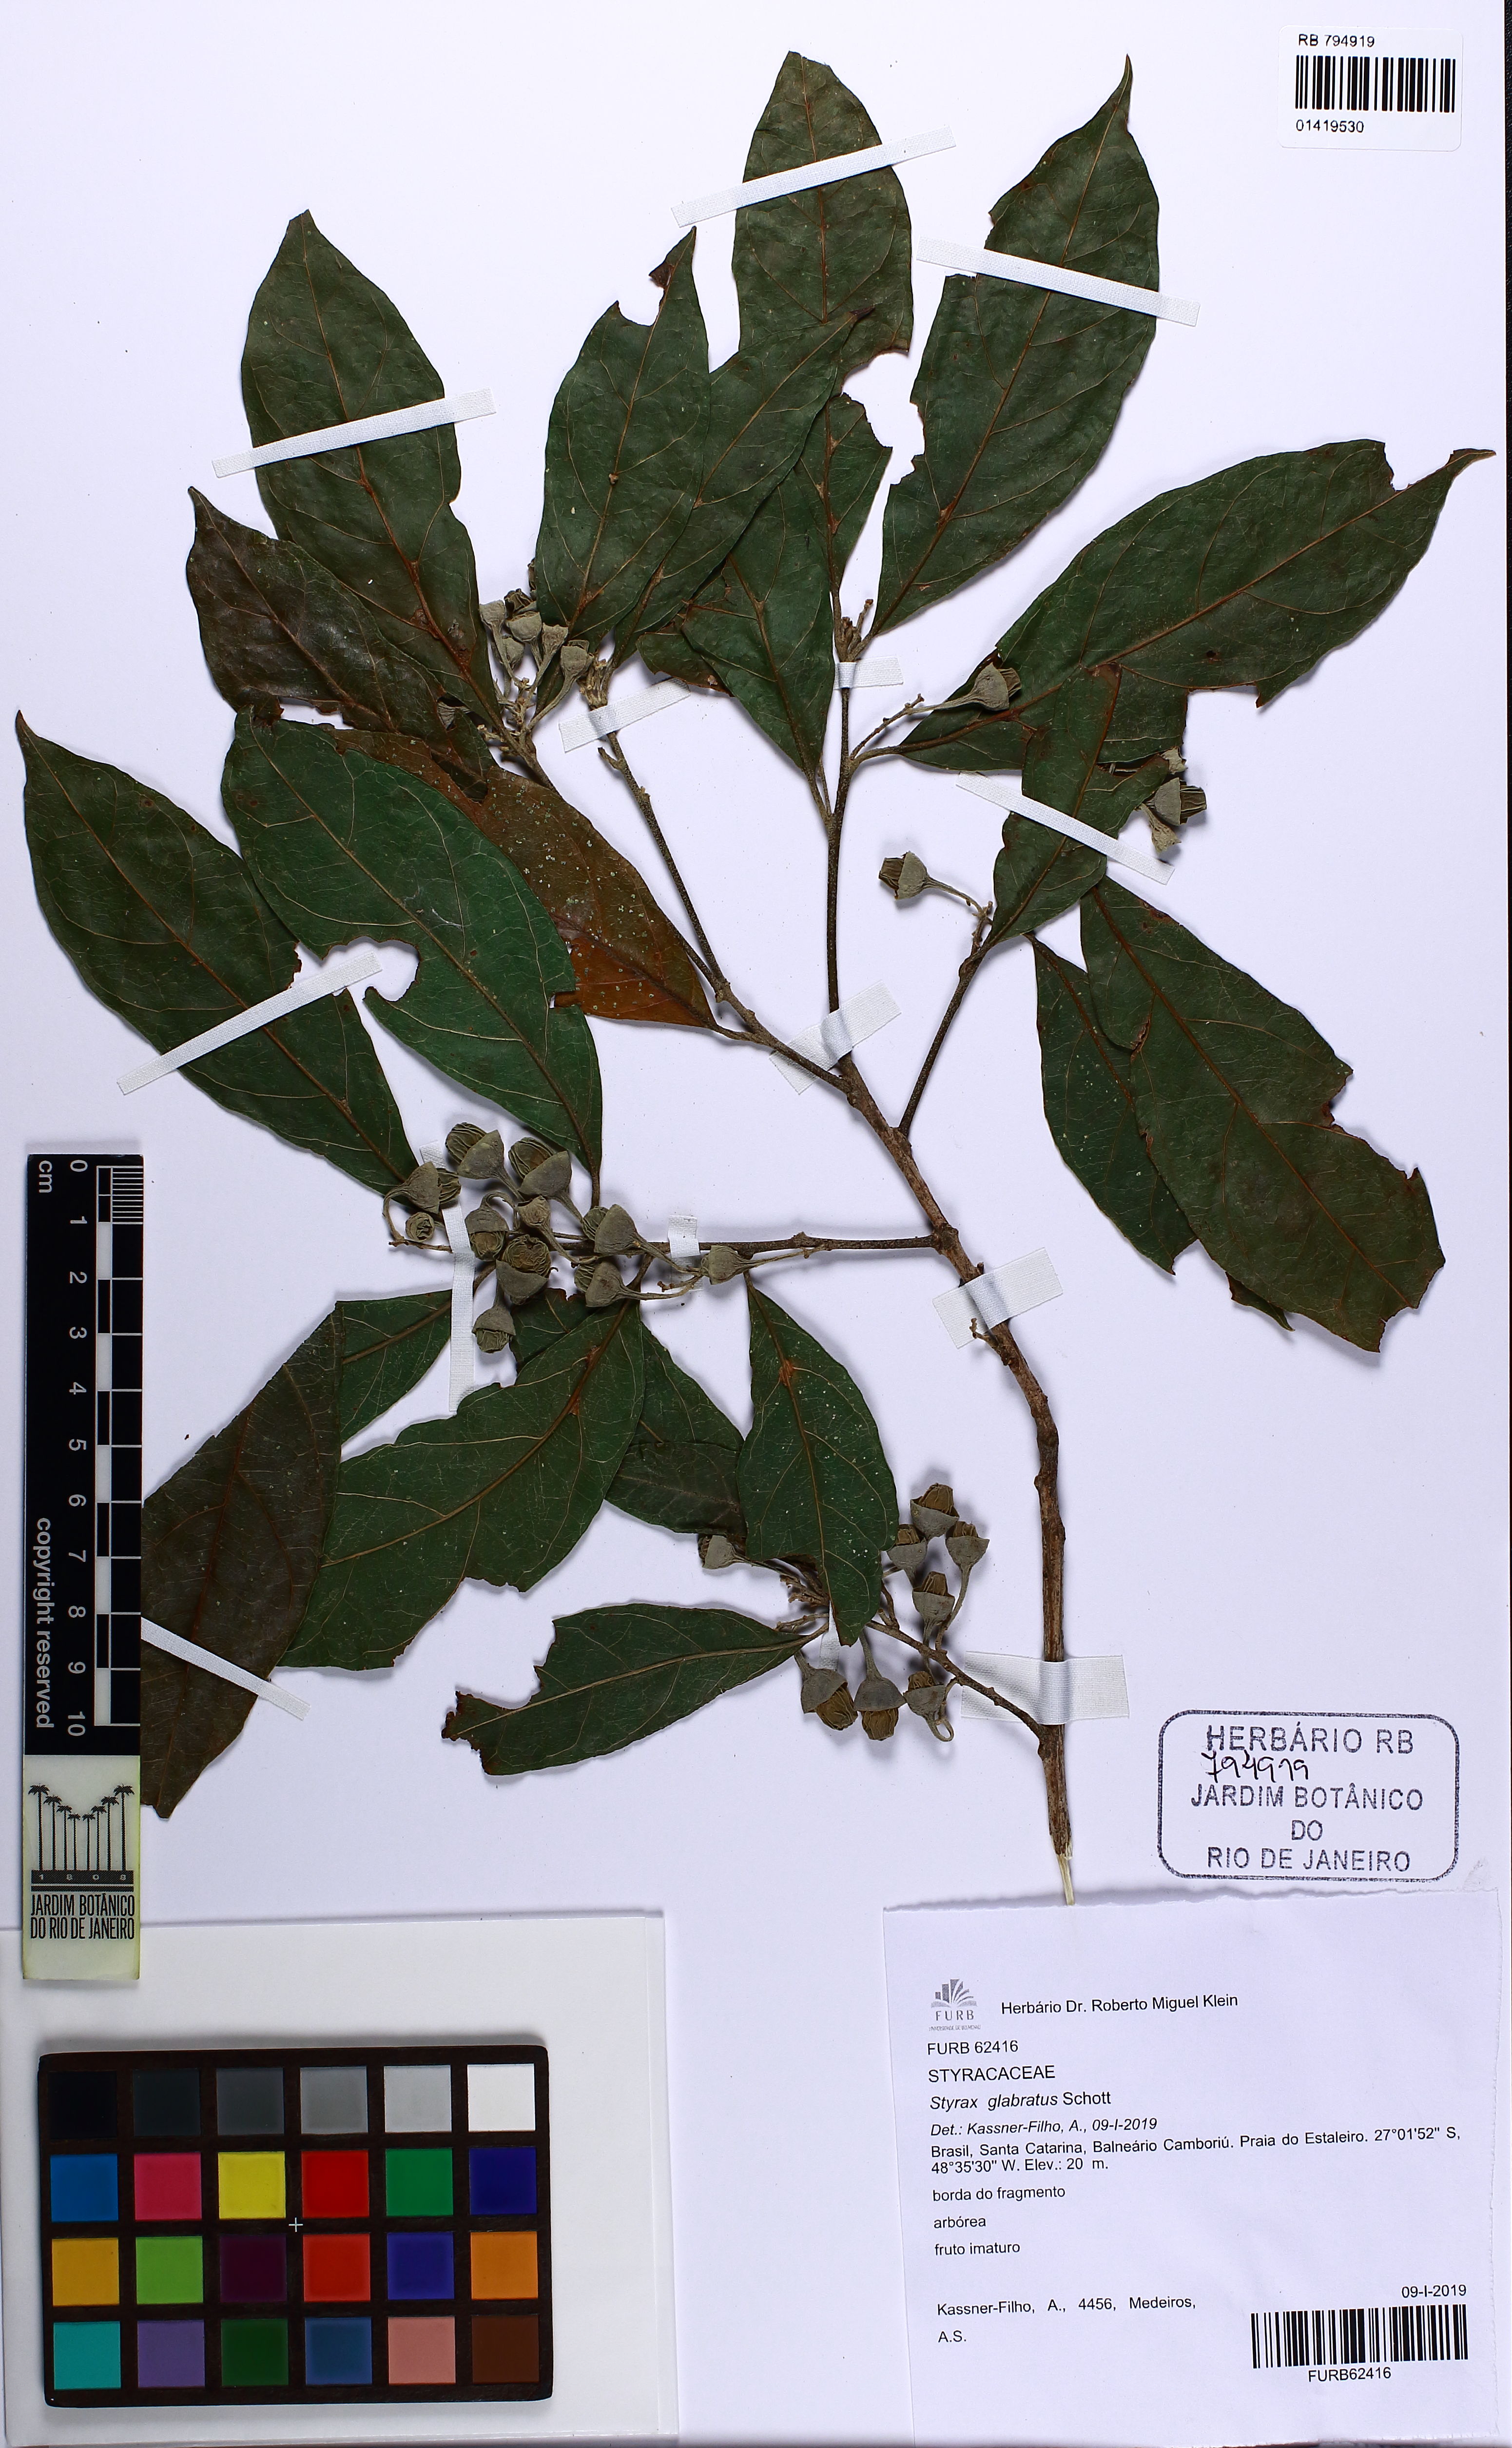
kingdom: Plantae
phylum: Tracheophyta
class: Magnoliopsida
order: Ericales
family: Styracaceae
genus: Styrax
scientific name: Styrax glabratus
